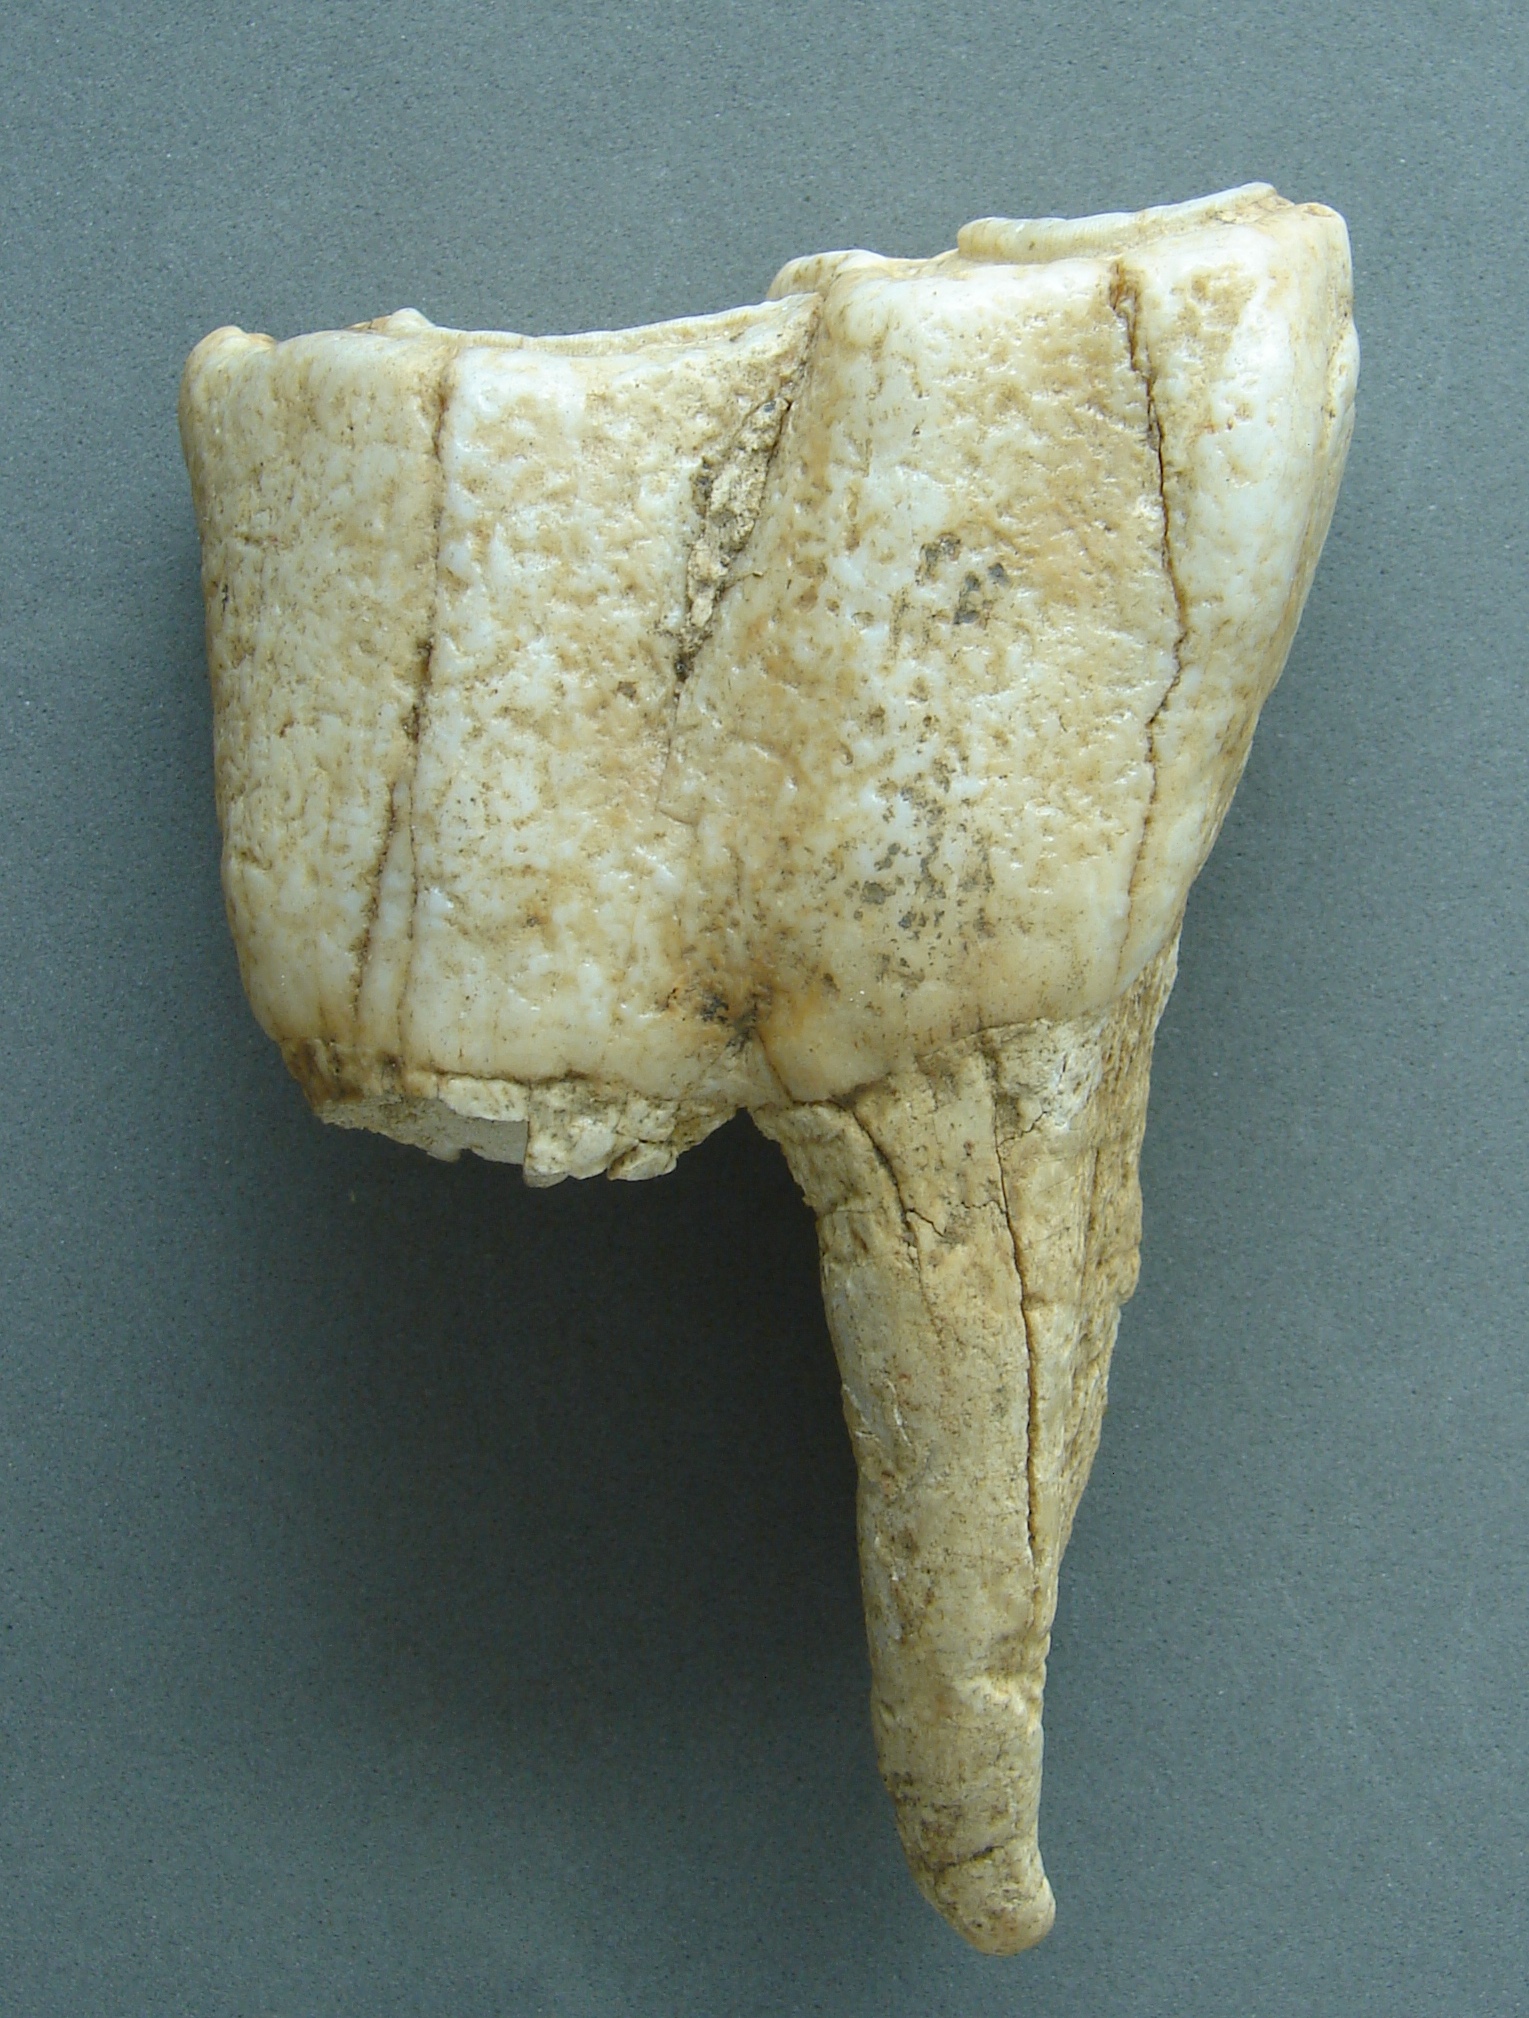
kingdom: Animalia
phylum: Chordata
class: Mammalia
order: Perissodactyla
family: Rhinocerotidae
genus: Rhinoceros
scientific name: Rhinoceros
